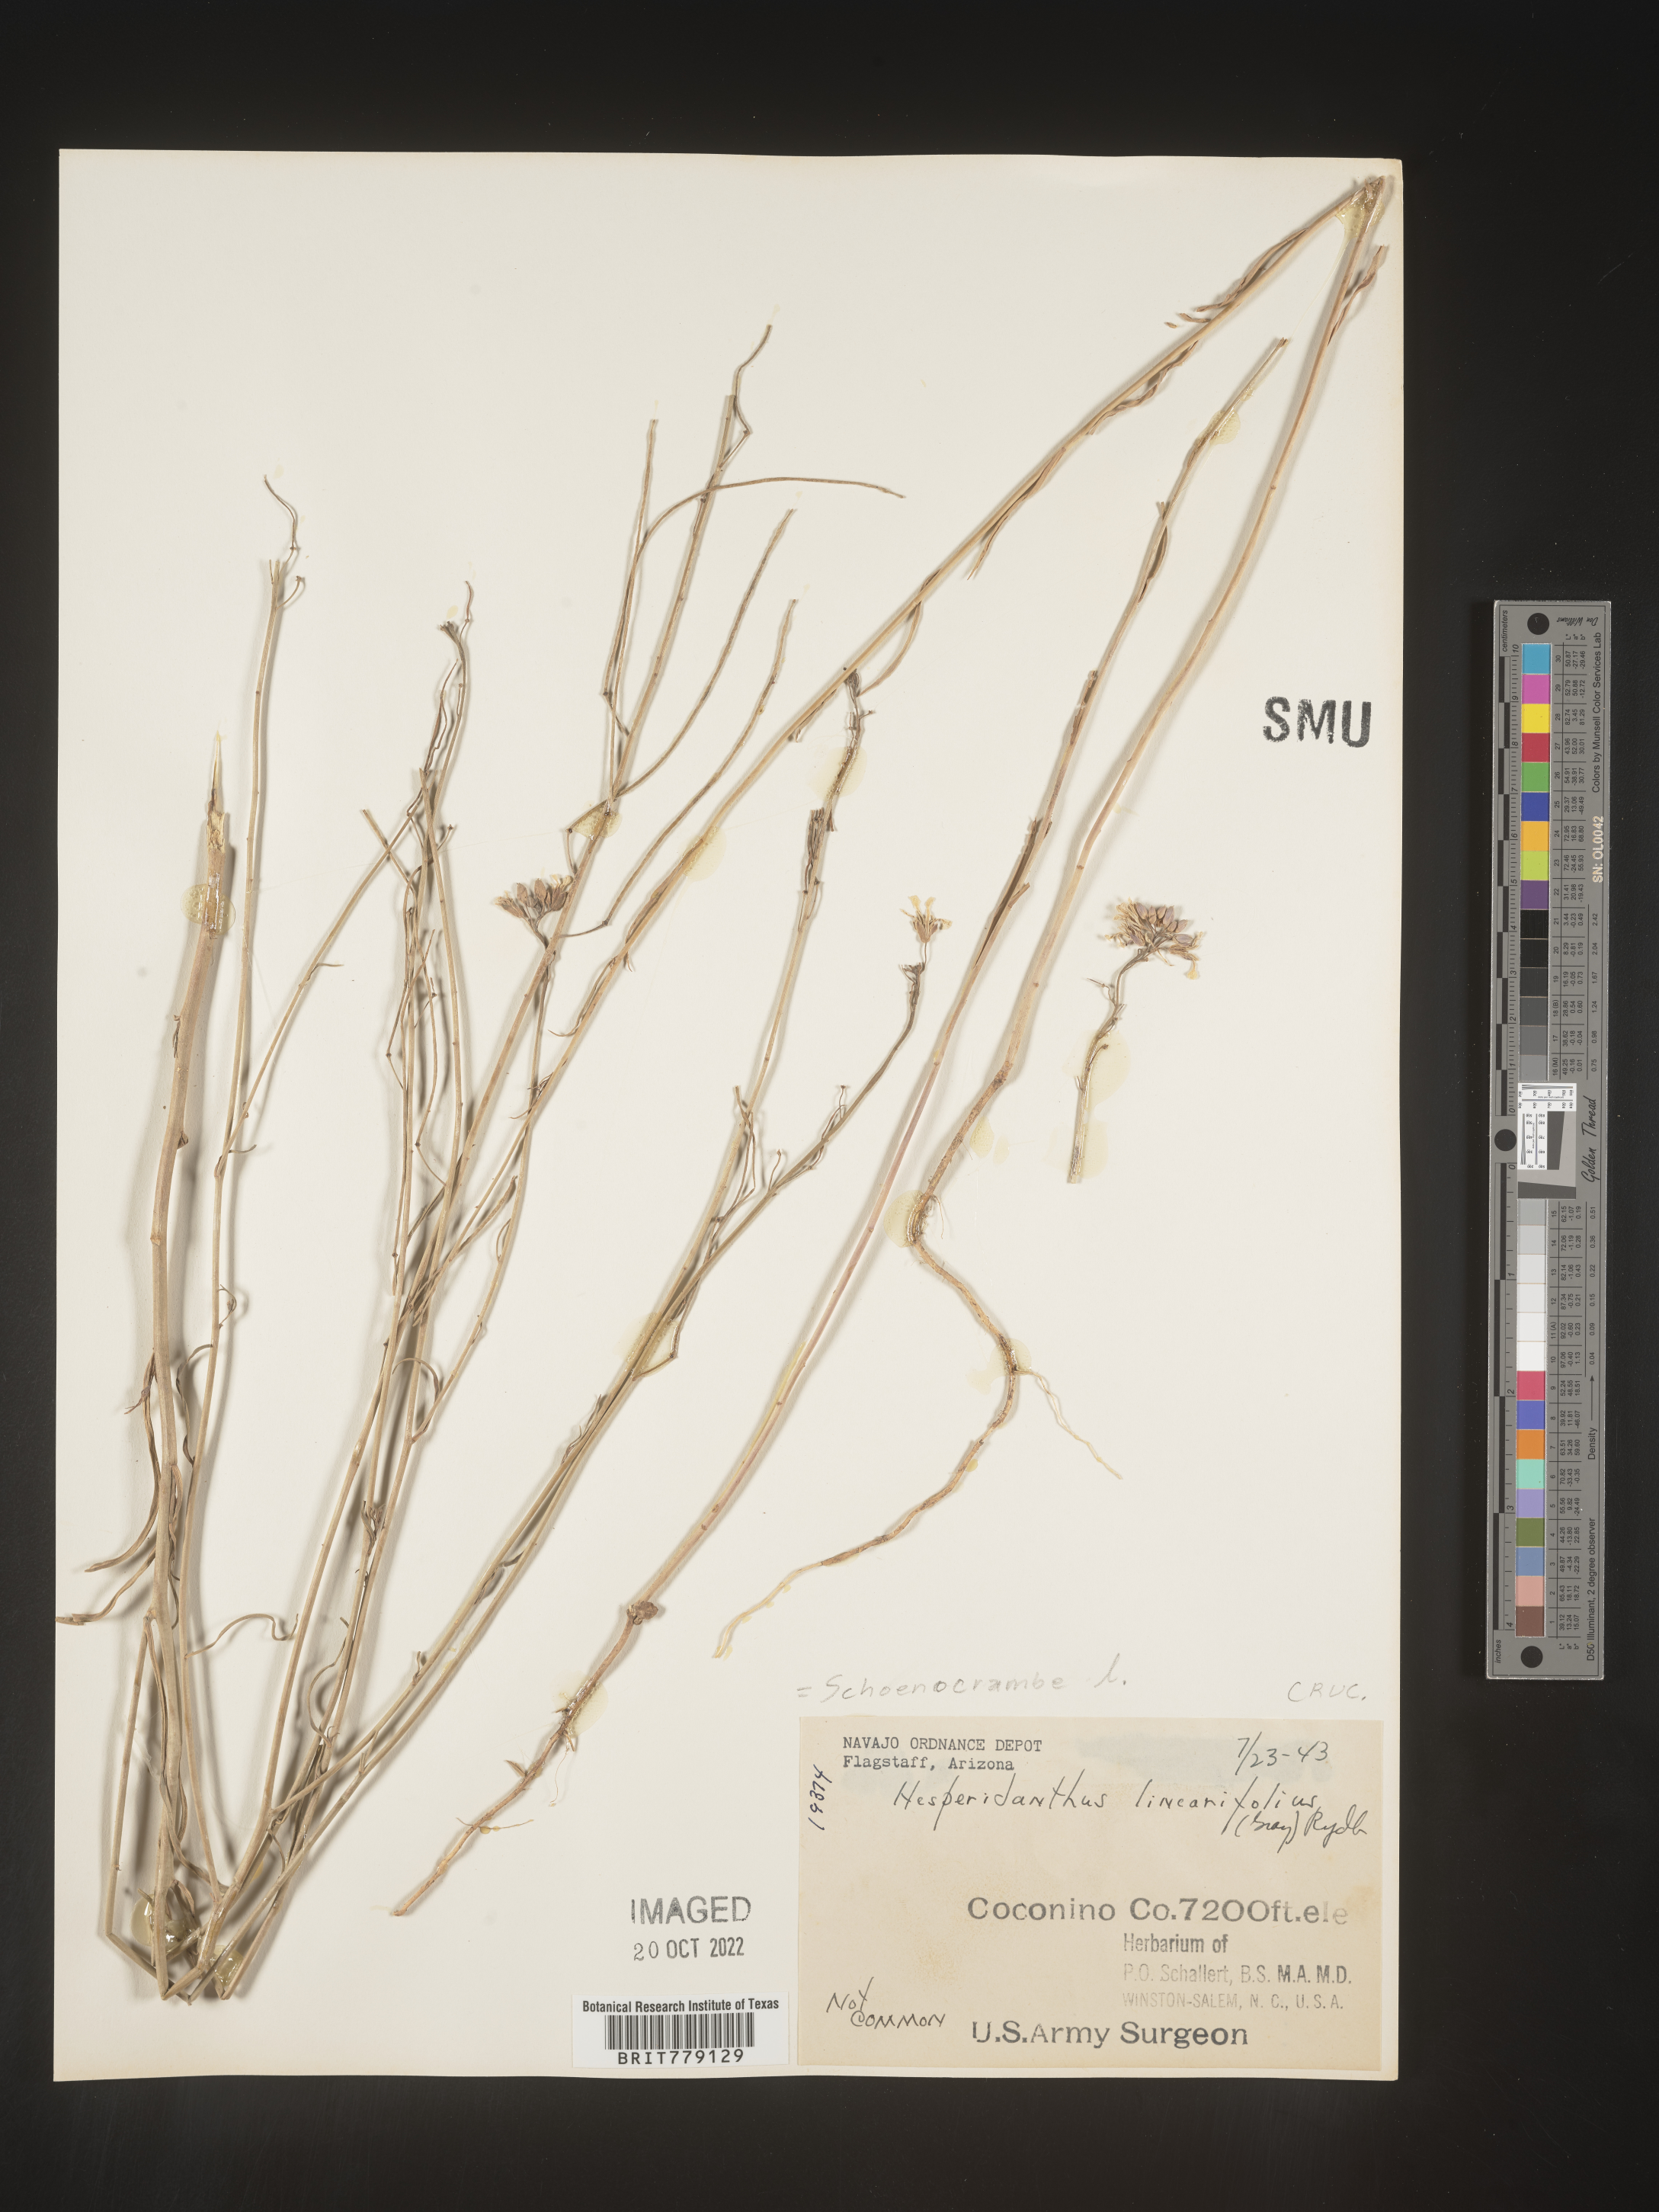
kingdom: Plantae
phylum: Tracheophyta
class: Magnoliopsida
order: Brassicales
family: Brassicaceae
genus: Hesperidanthus
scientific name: Hesperidanthus
